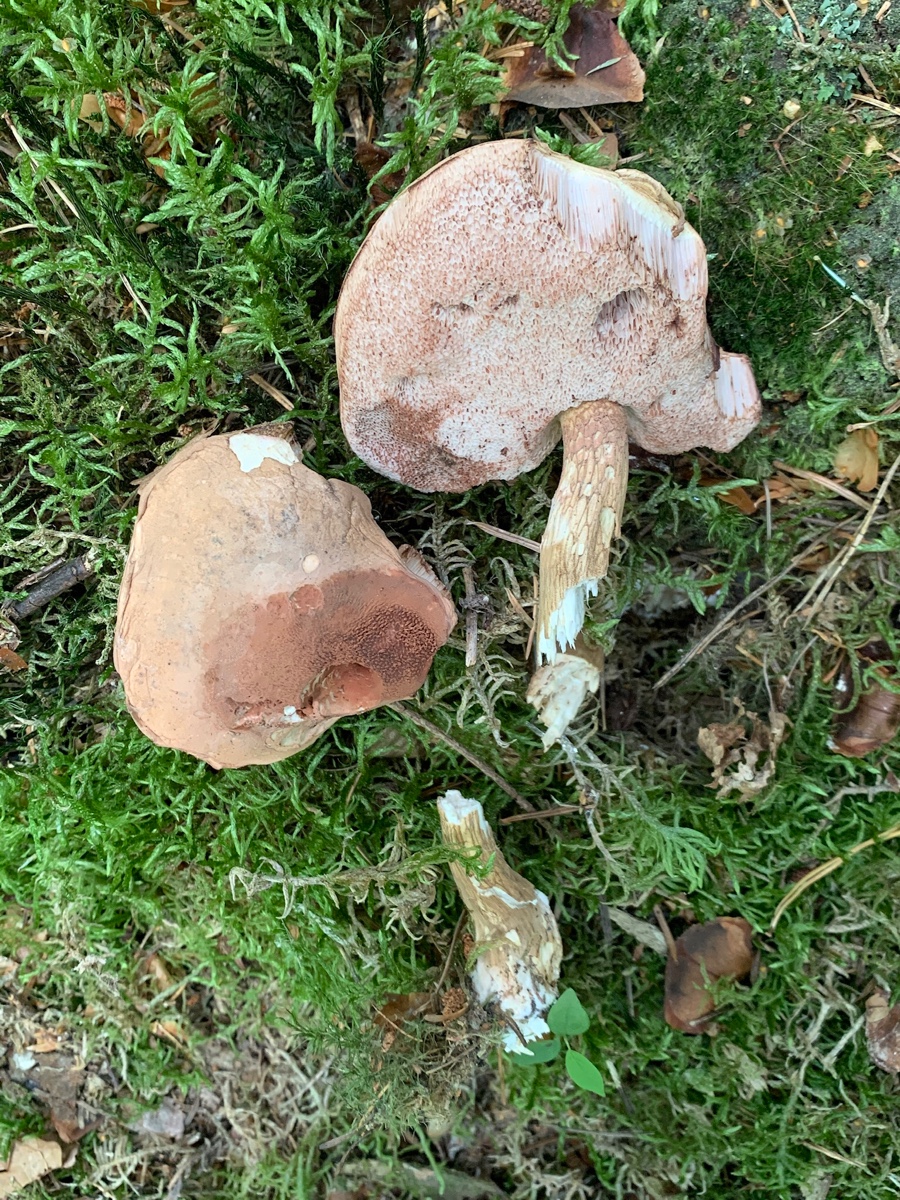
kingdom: Fungi
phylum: Basidiomycota
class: Agaricomycetes
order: Boletales
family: Boletaceae
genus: Tylopilus
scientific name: Tylopilus felleus
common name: galderørhat
